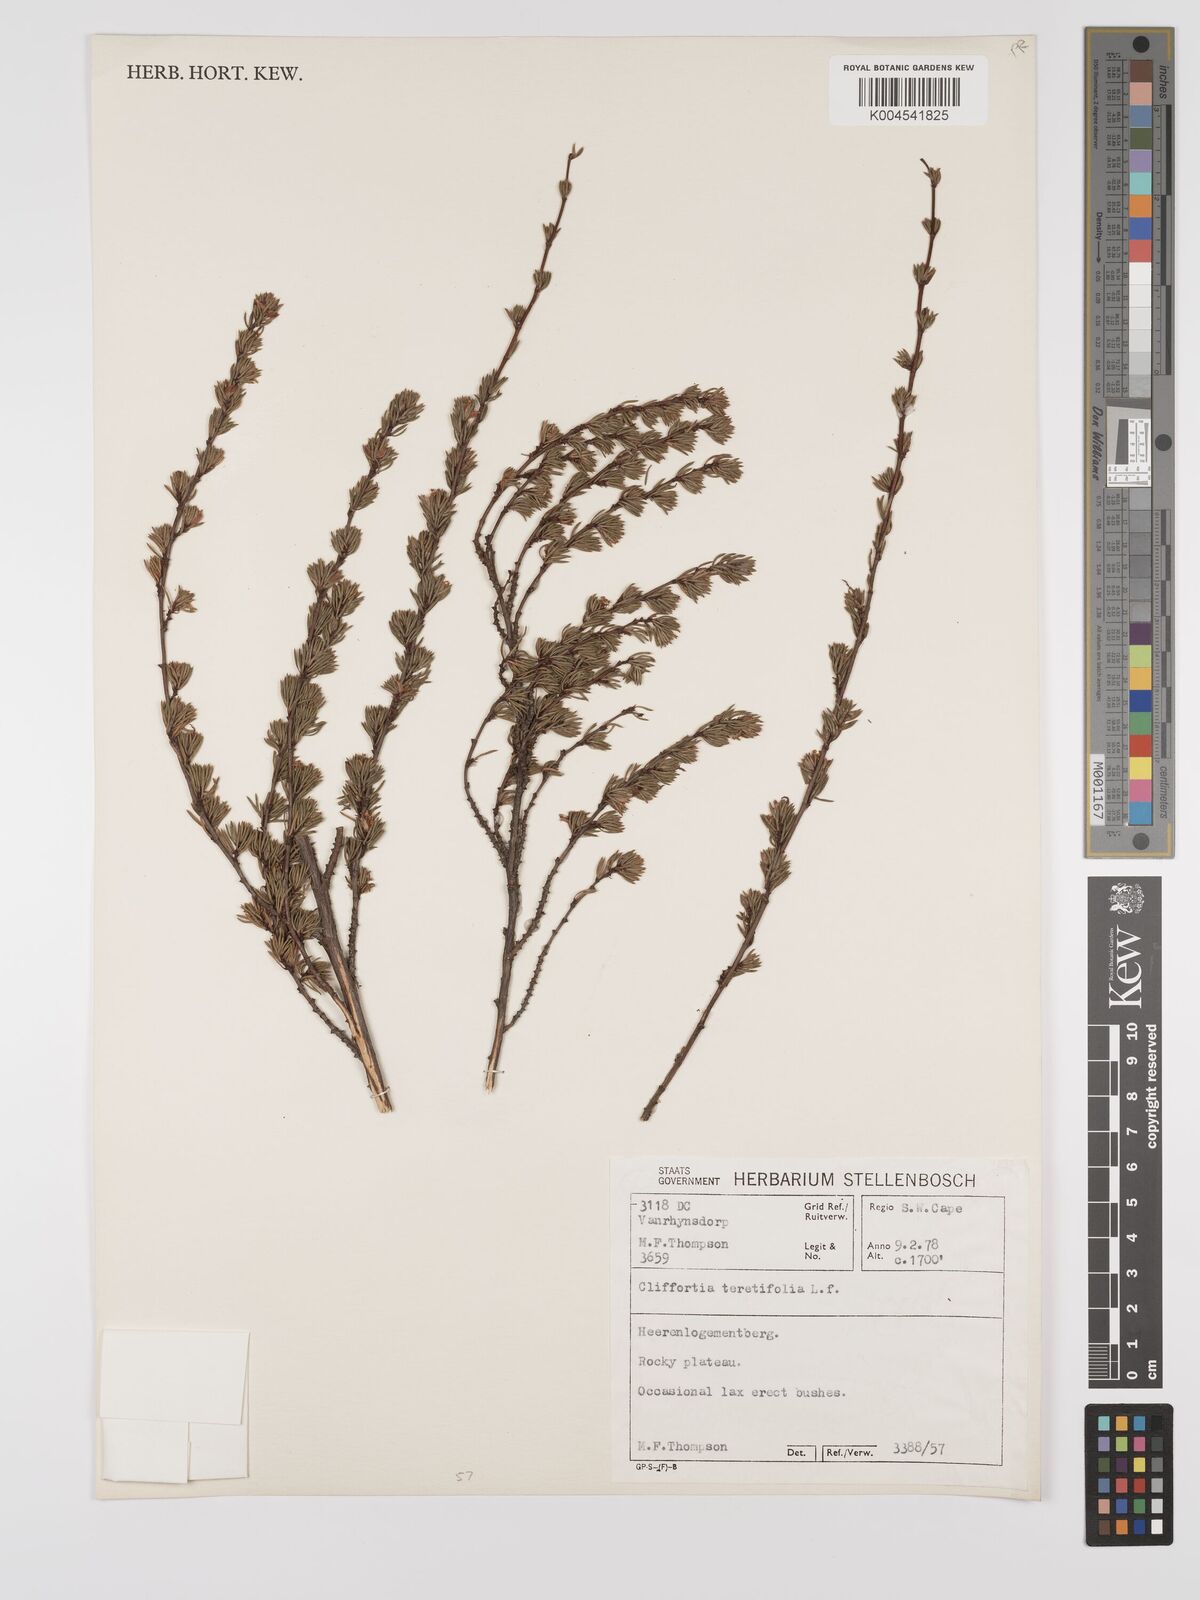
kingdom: Plantae
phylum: Tracheophyta
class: Magnoliopsida
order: Rosales
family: Rosaceae
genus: Cliffortia
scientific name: Cliffortia teretifolia
